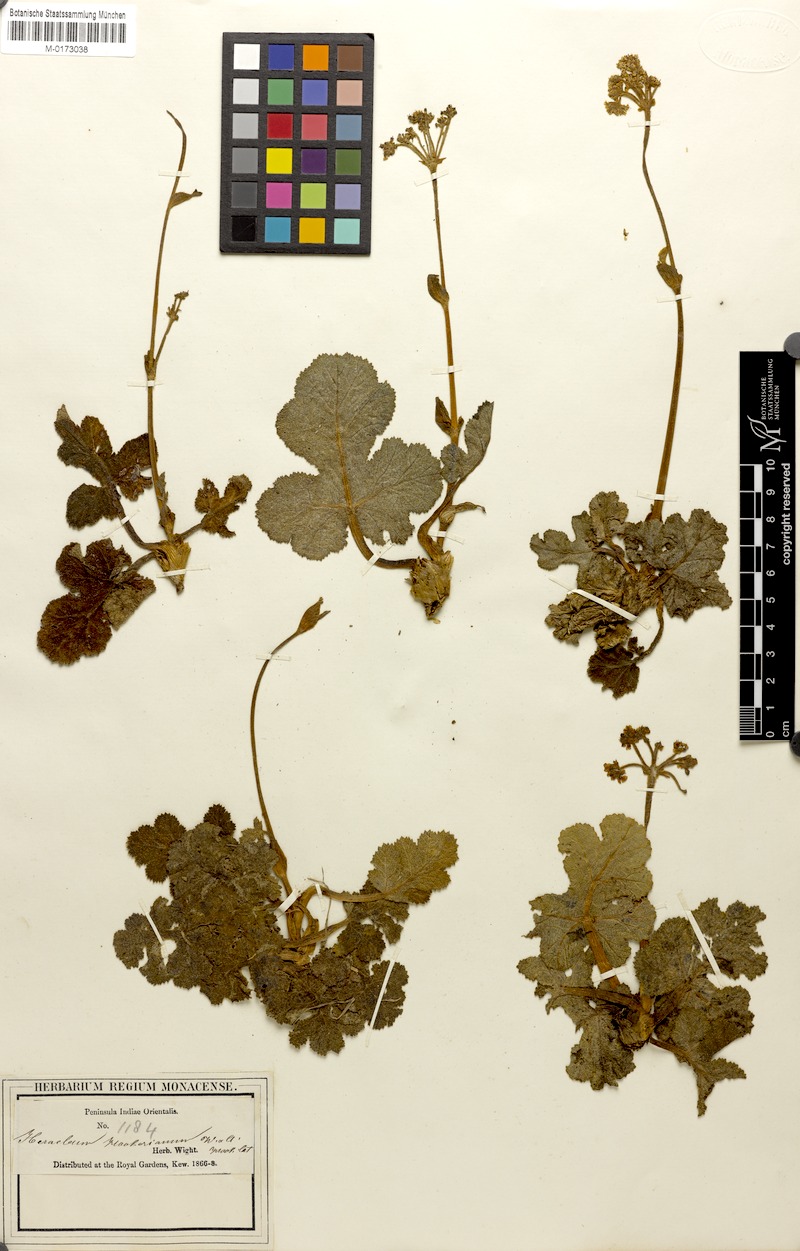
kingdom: Plantae
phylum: Tracheophyta
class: Magnoliopsida
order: Apiales
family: Apiaceae
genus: Tetrataenium
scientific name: Tetrataenium hookerianum
